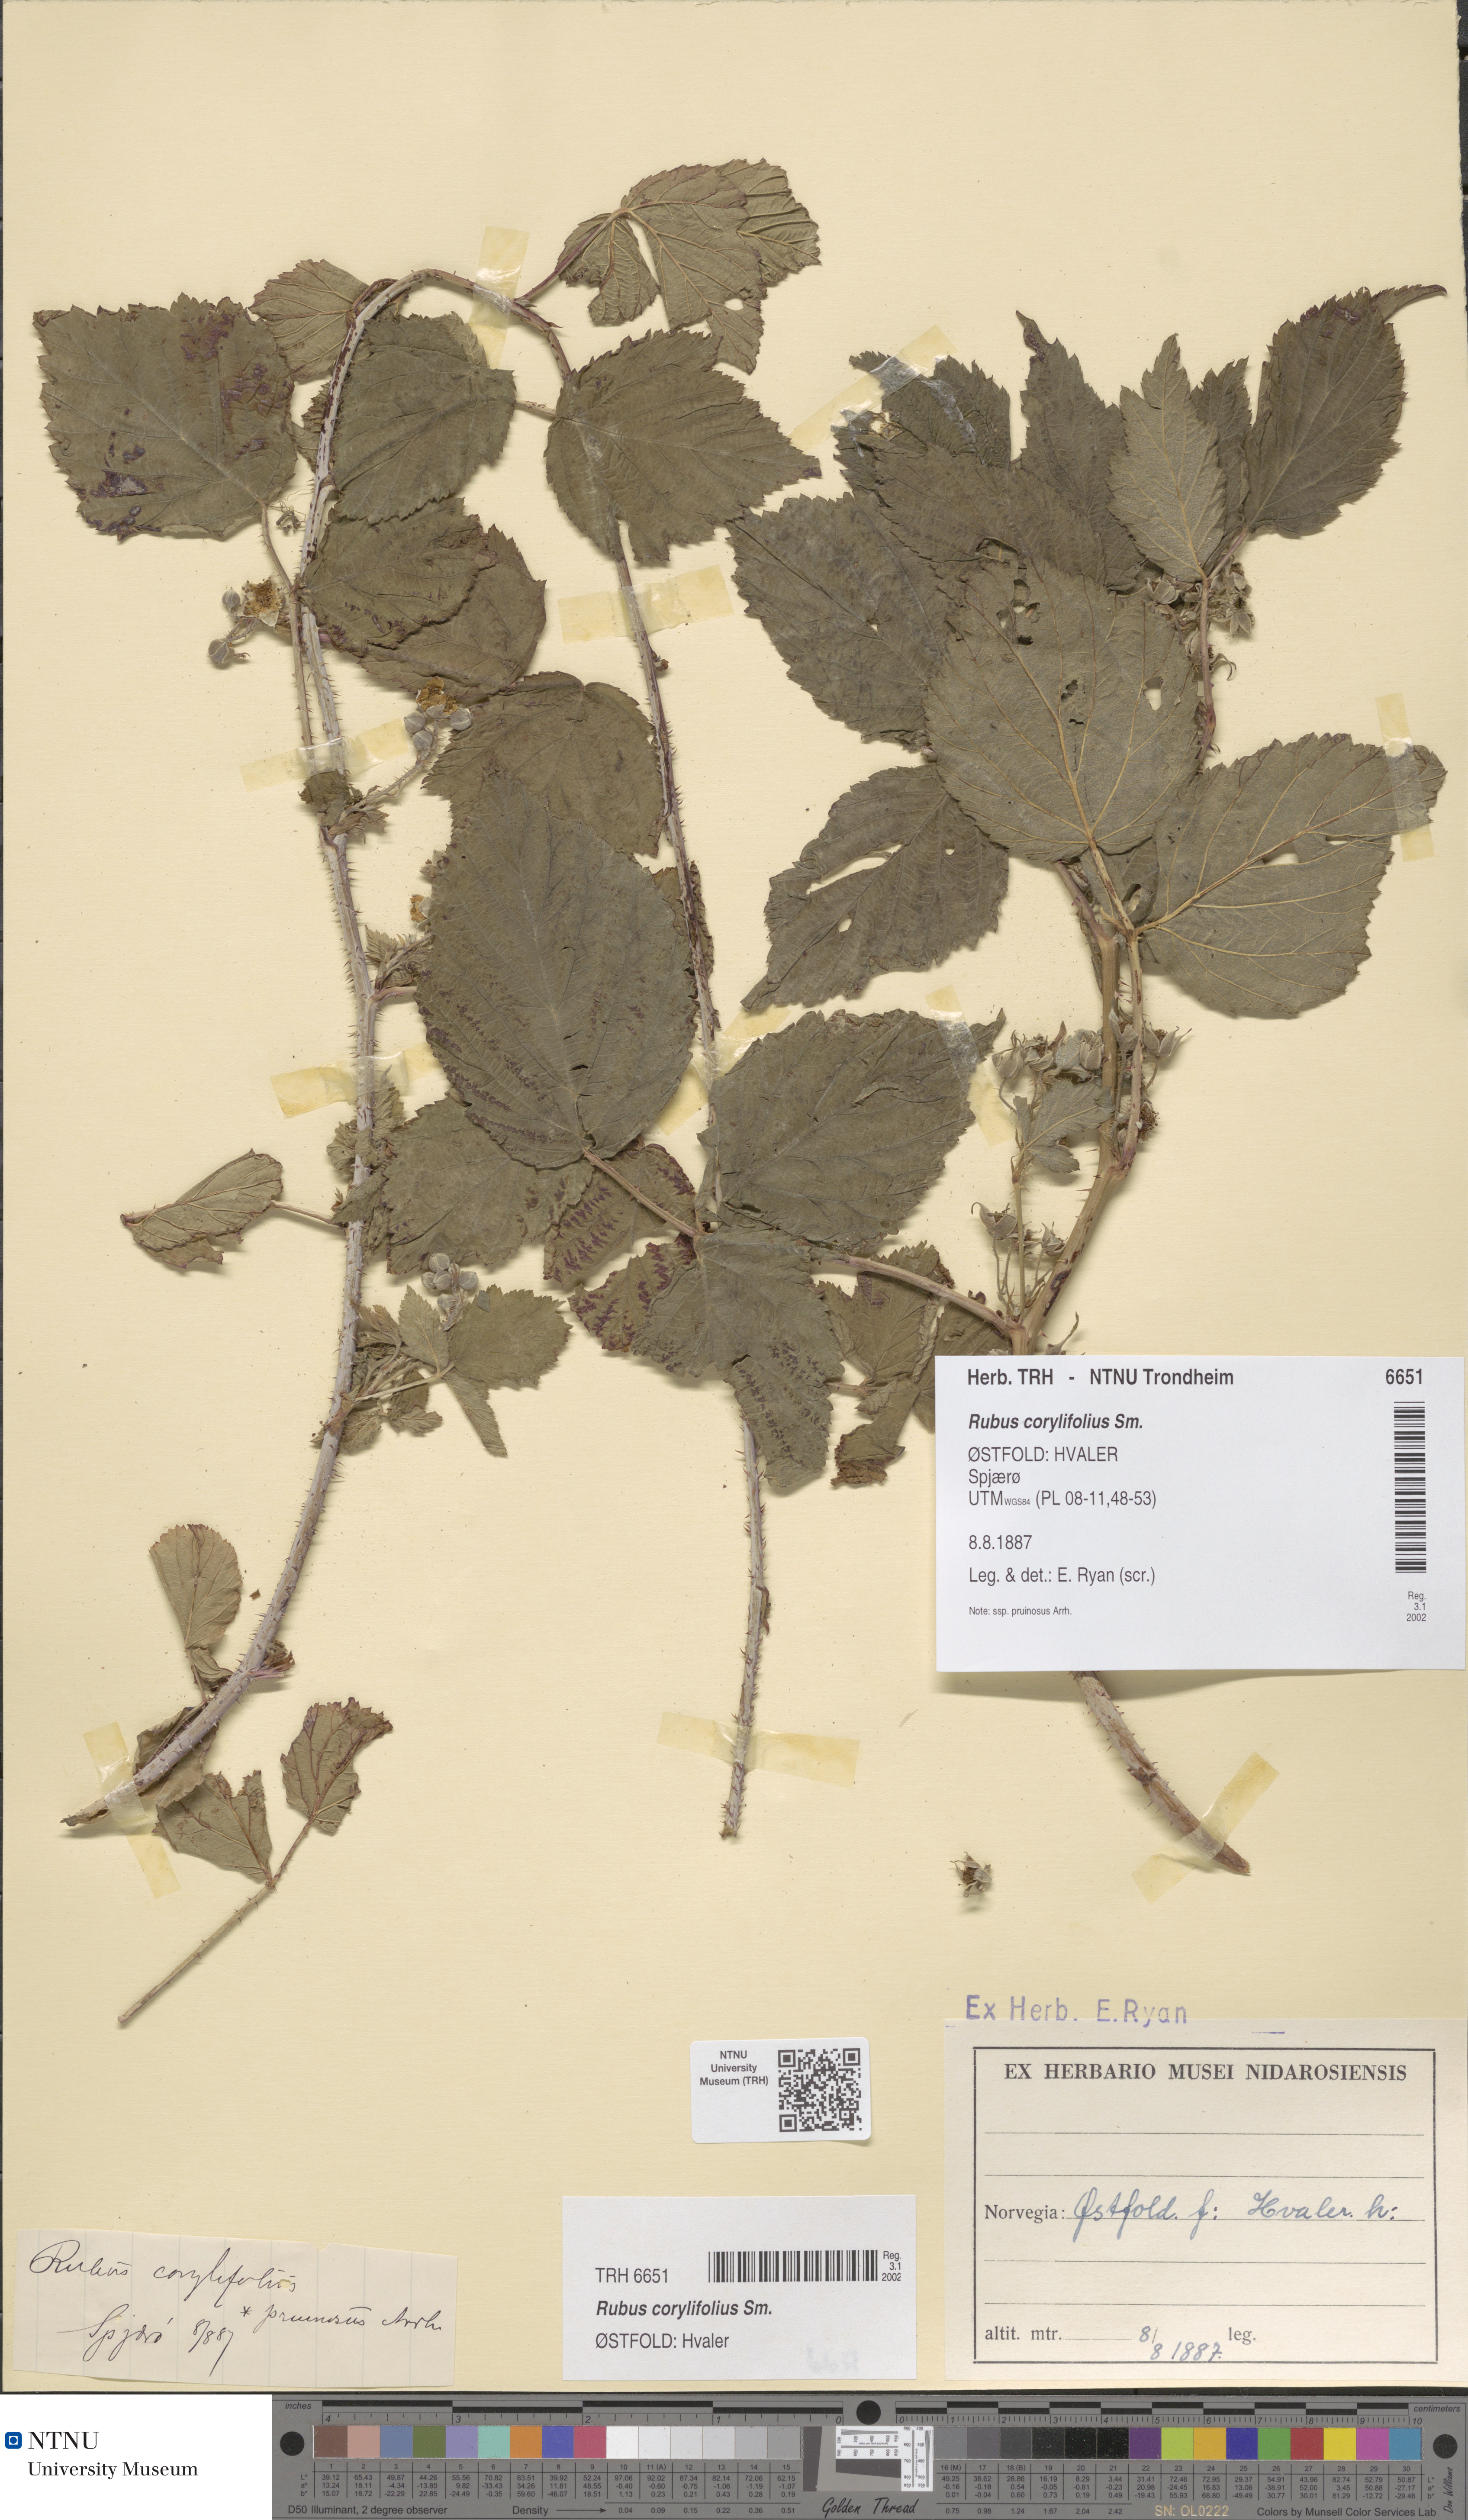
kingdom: Plantae
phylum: Tracheophyta
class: Magnoliopsida
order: Rosales
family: Rosaceae
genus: Rubus
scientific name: Rubus
